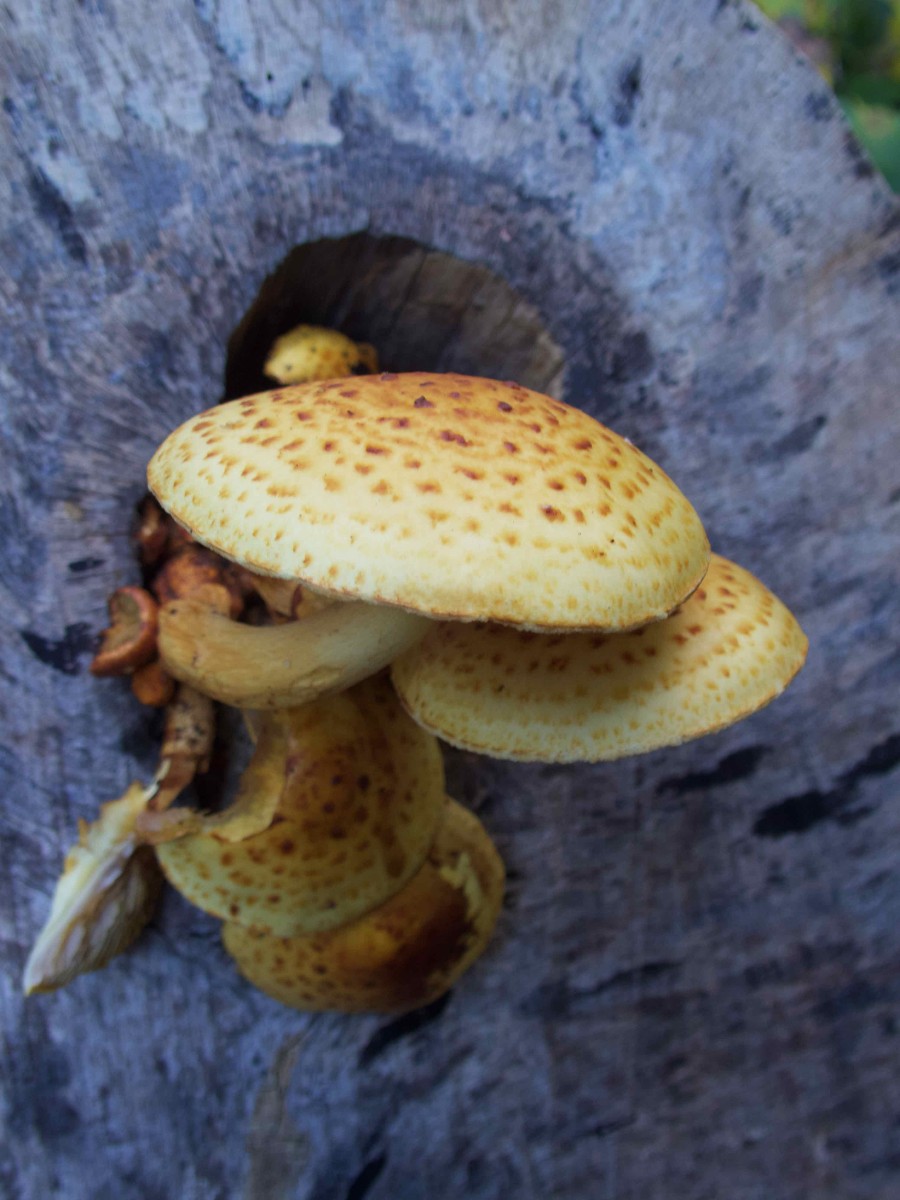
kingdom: Fungi
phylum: Basidiomycota
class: Agaricomycetes
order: Agaricales
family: Strophariaceae
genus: Pholiota
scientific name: Pholiota adiposa
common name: højtsiddende skælhat
